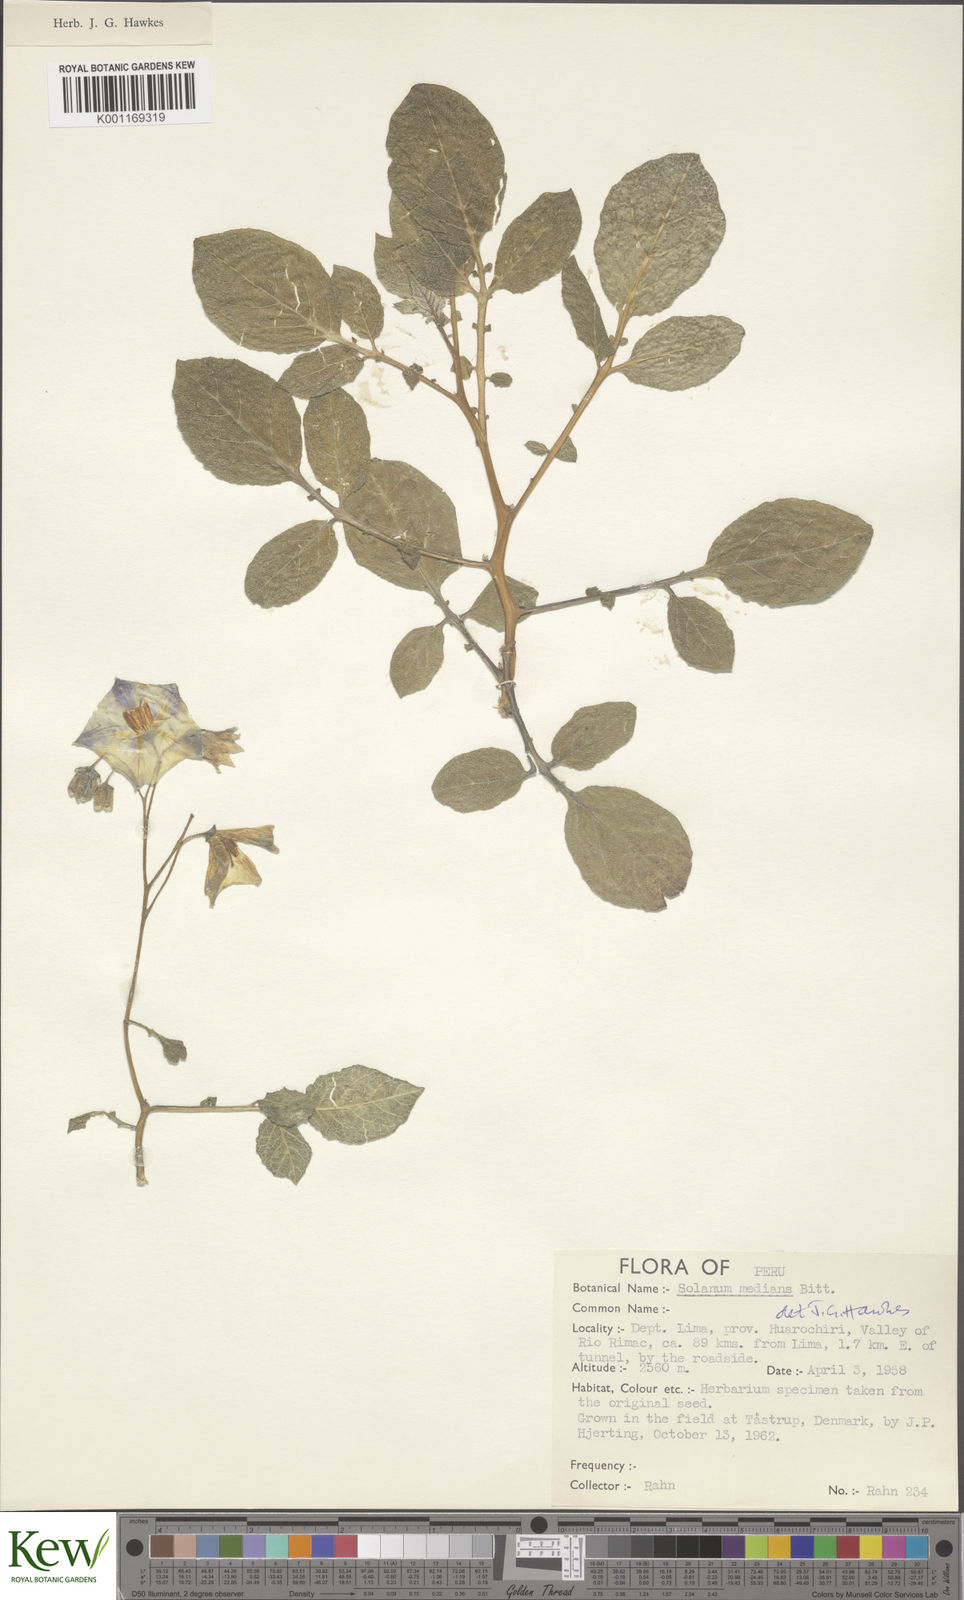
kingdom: Plantae
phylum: Tracheophyta
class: Magnoliopsida
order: Solanales
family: Solanaceae
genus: Solanum
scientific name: Solanum medians
